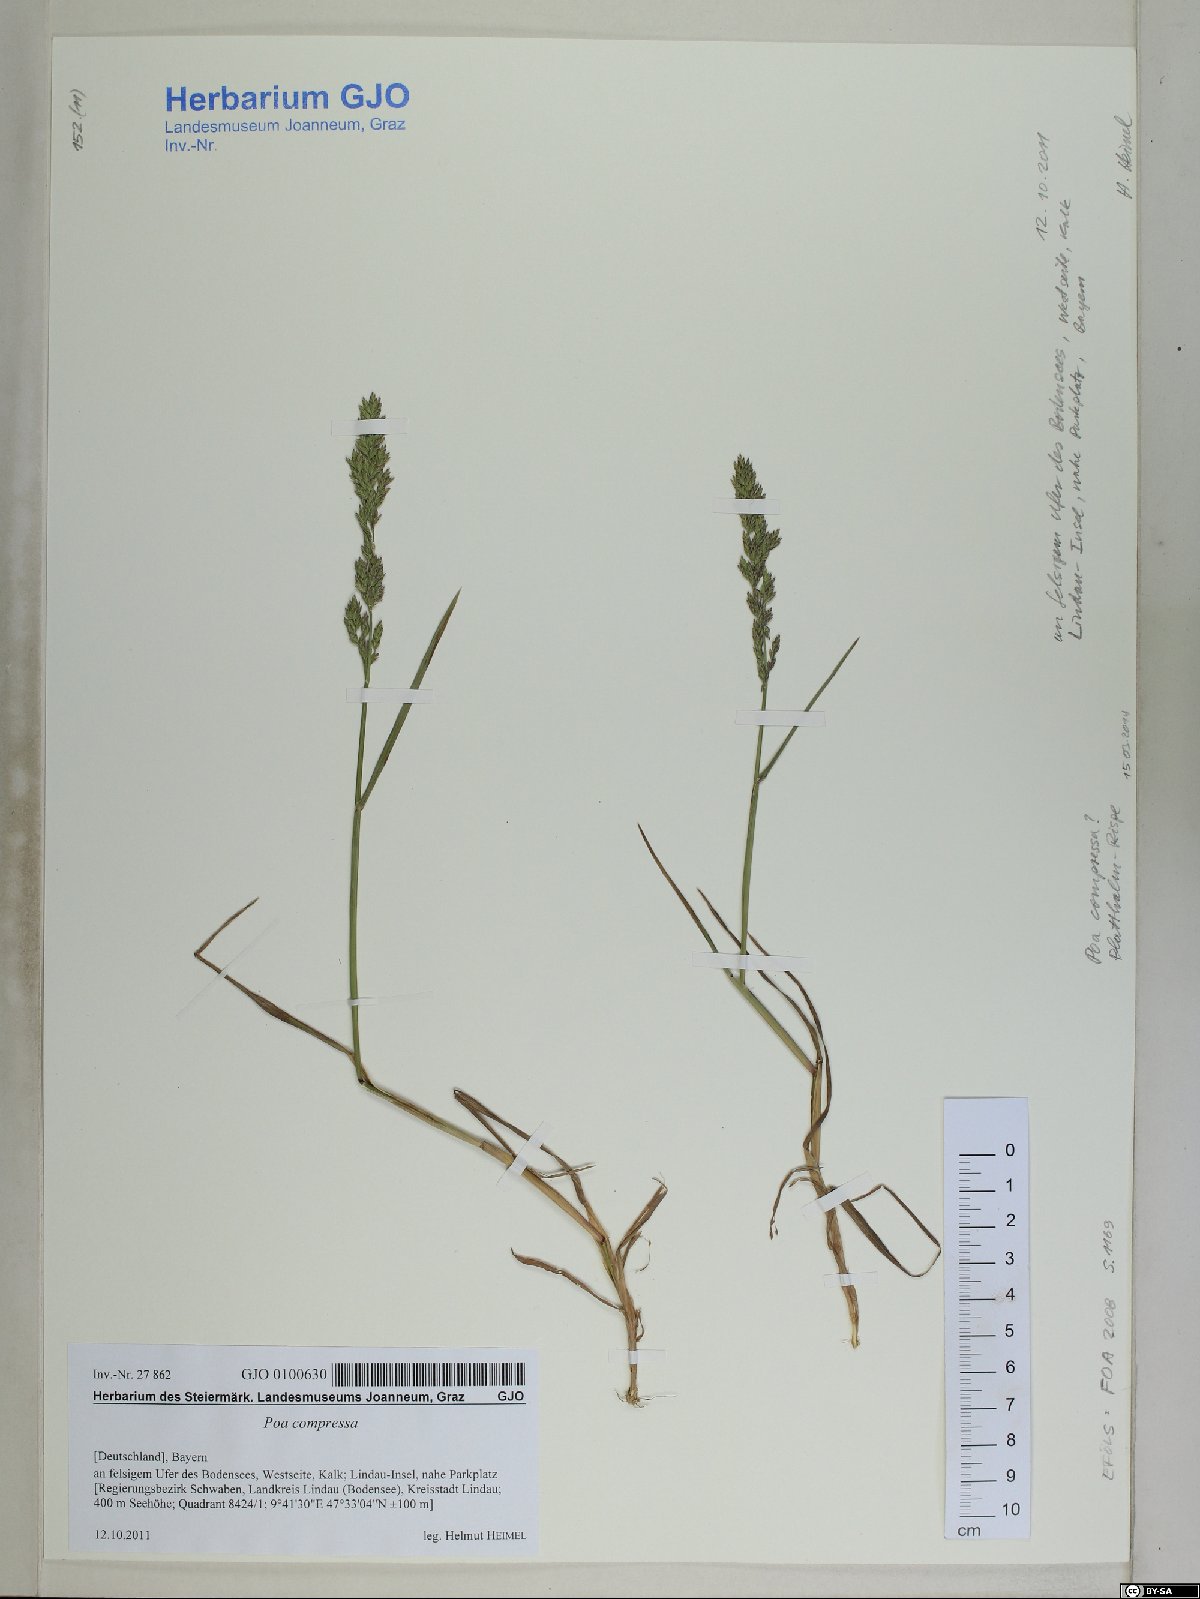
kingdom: Plantae
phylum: Tracheophyta
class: Liliopsida
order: Poales
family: Poaceae
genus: Poa
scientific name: Poa compressa
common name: Canada bluegrass
